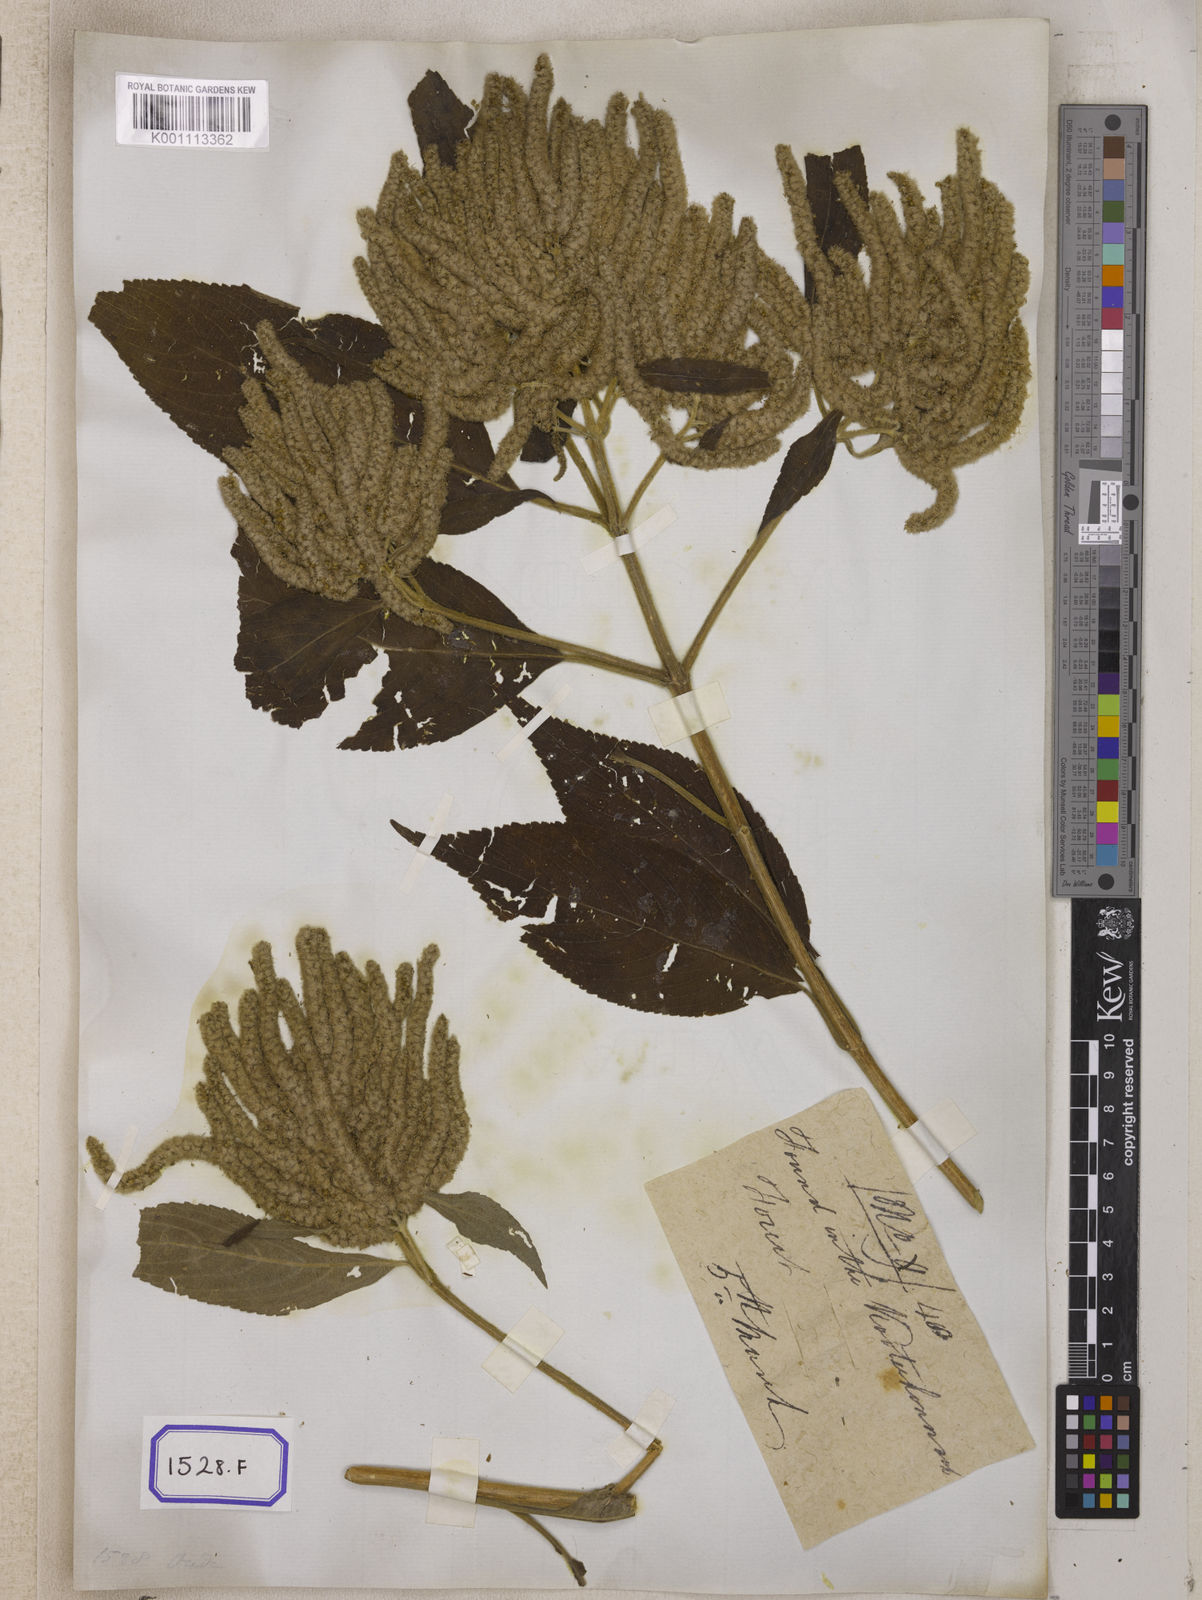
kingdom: Plantae
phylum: Tracheophyta
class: Magnoliopsida
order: Lamiales
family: Lamiaceae
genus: Colebrookea
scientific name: Colebrookea
